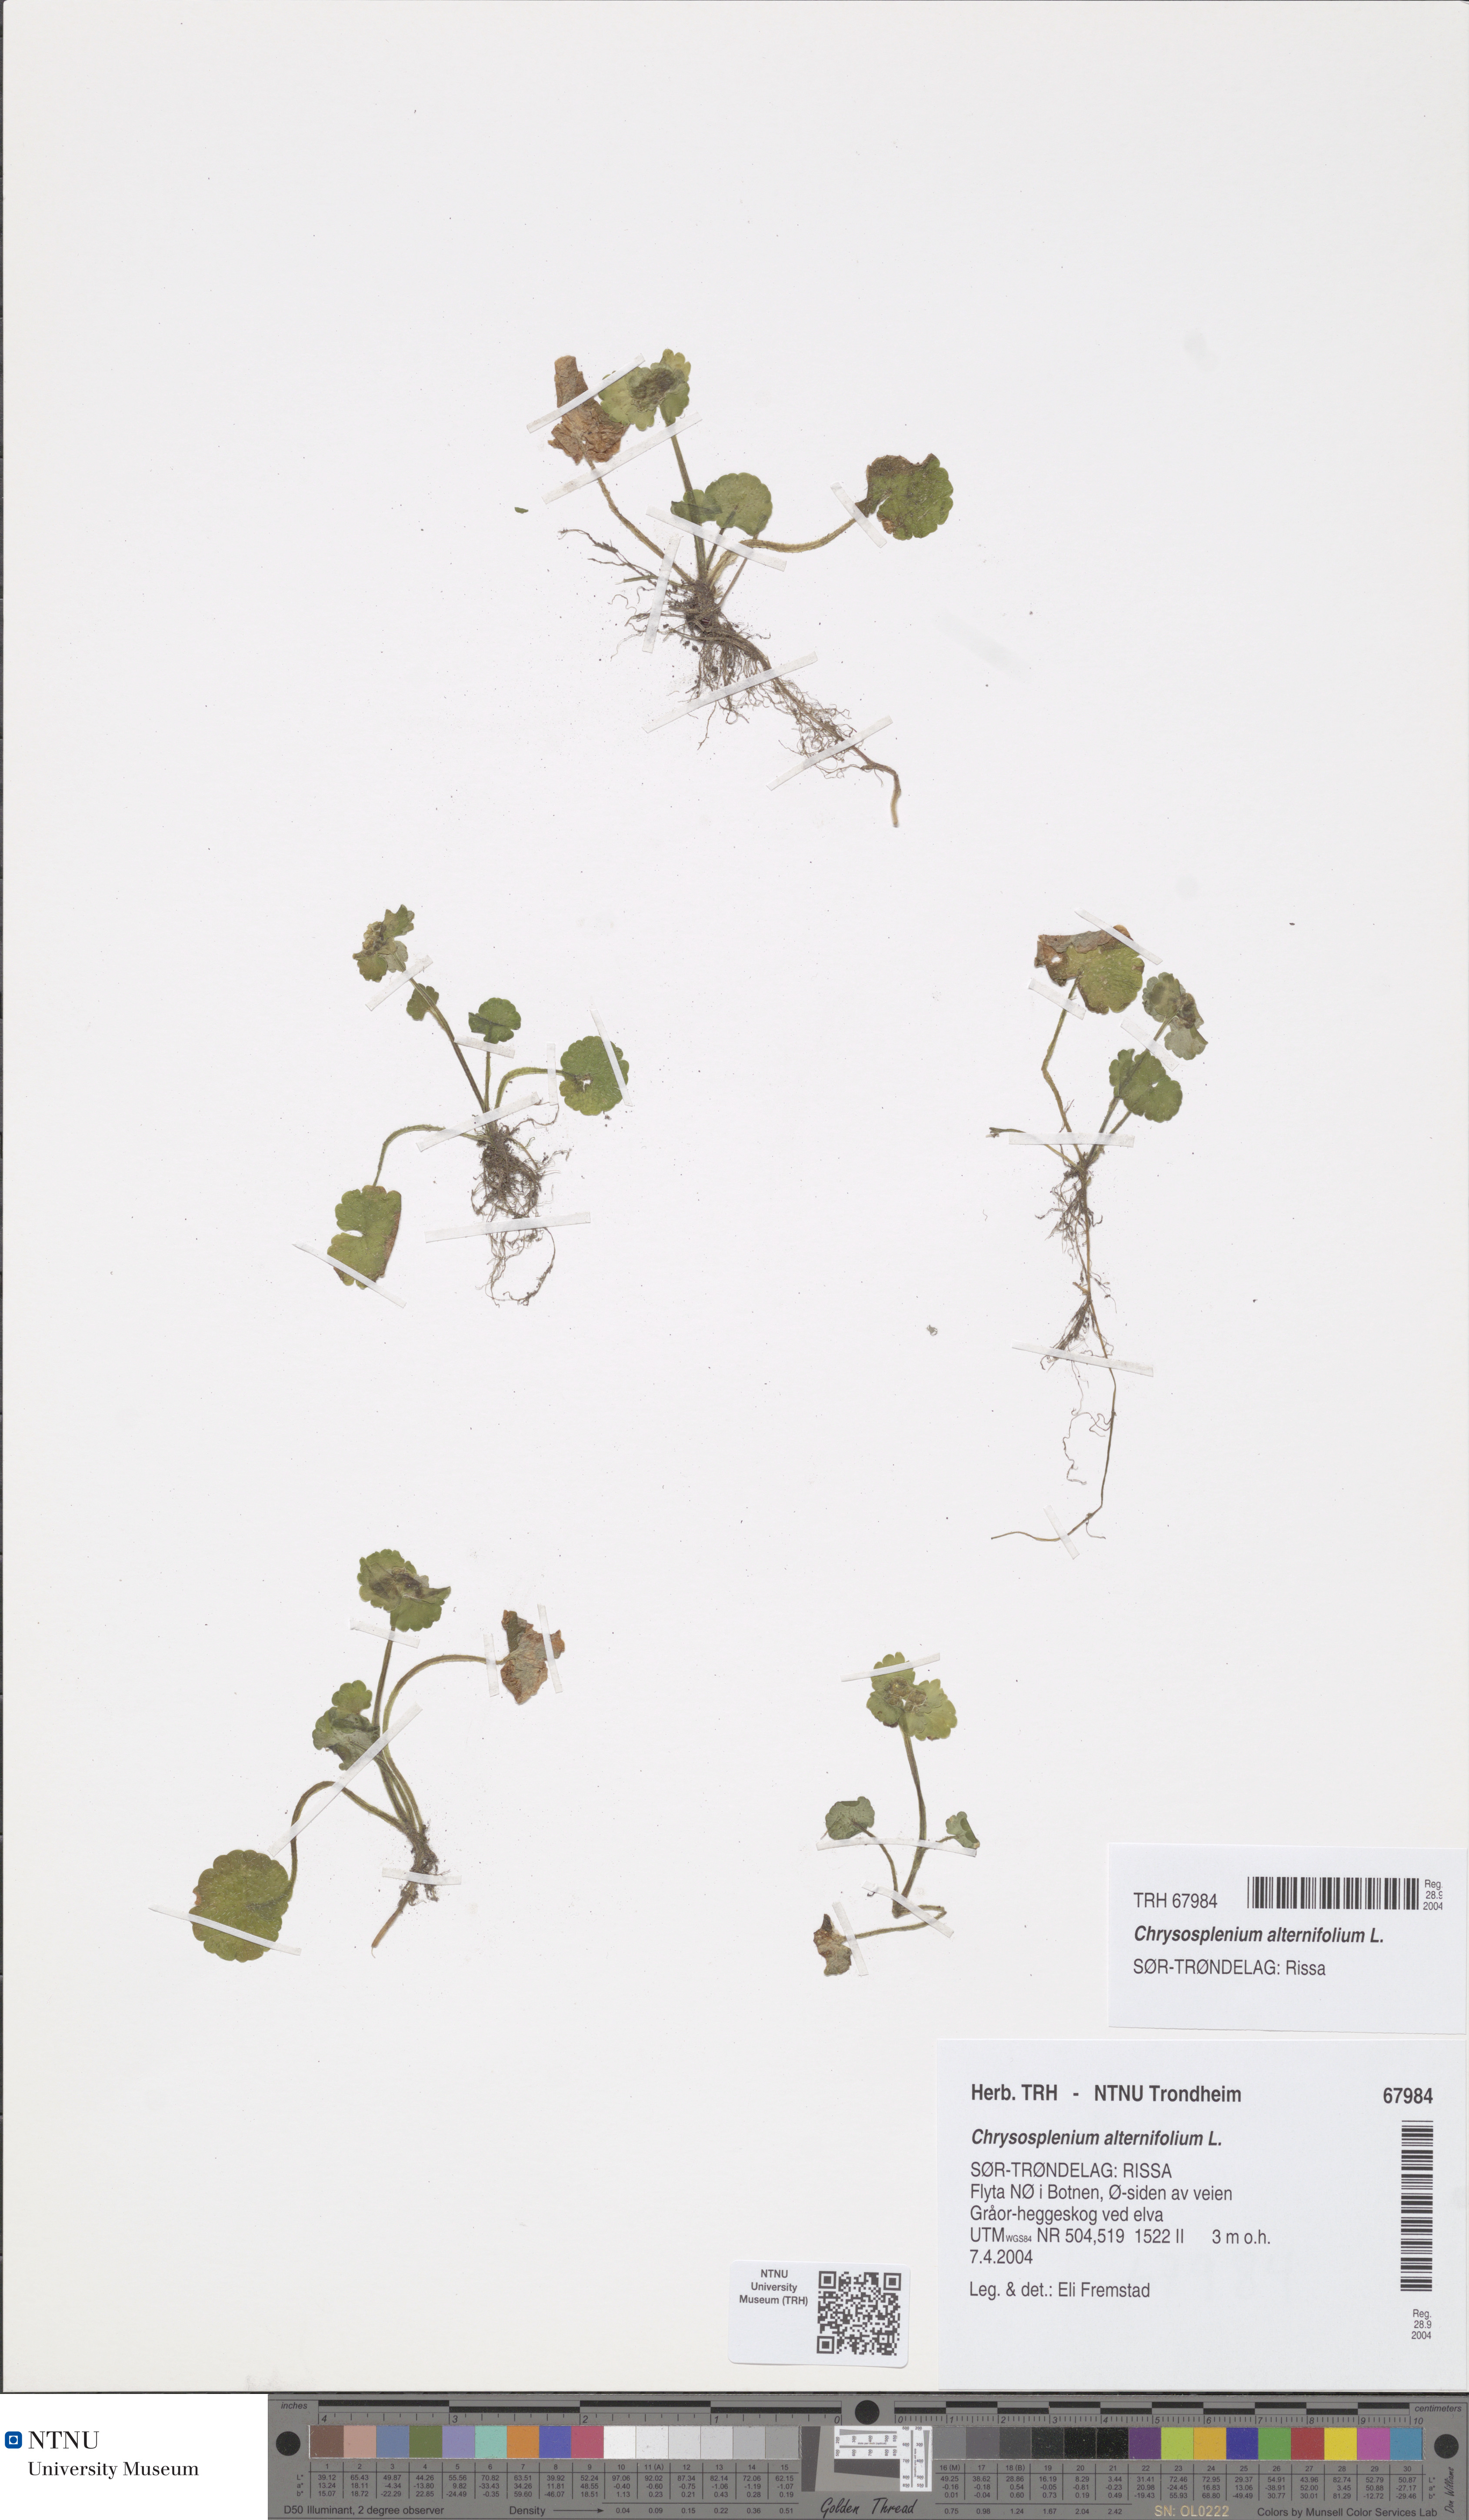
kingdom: Plantae
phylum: Tracheophyta
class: Magnoliopsida
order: Saxifragales
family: Saxifragaceae
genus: Chrysosplenium
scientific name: Chrysosplenium alternifolium
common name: Alternate-leaved golden-saxifrage
